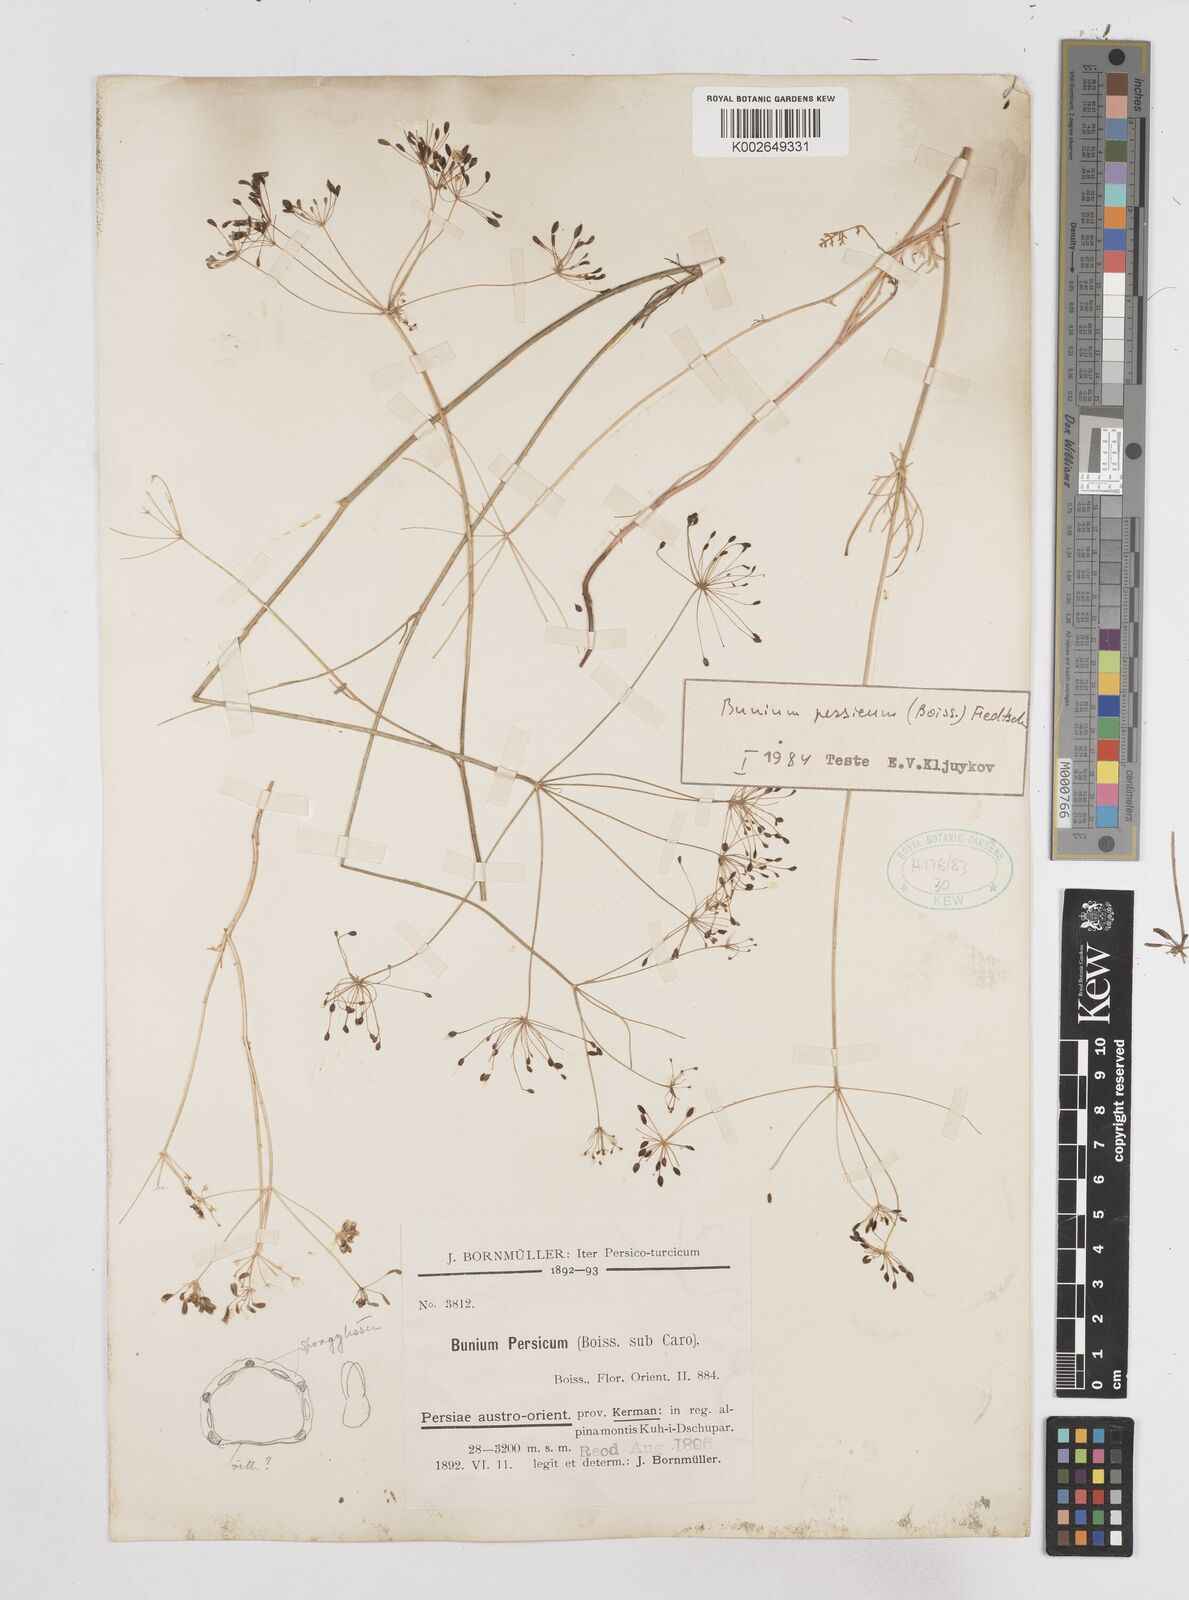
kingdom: Plantae
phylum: Tracheophyta
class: Magnoliopsida
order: Apiales
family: Apiaceae
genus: Elwendia
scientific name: Elwendia persica
